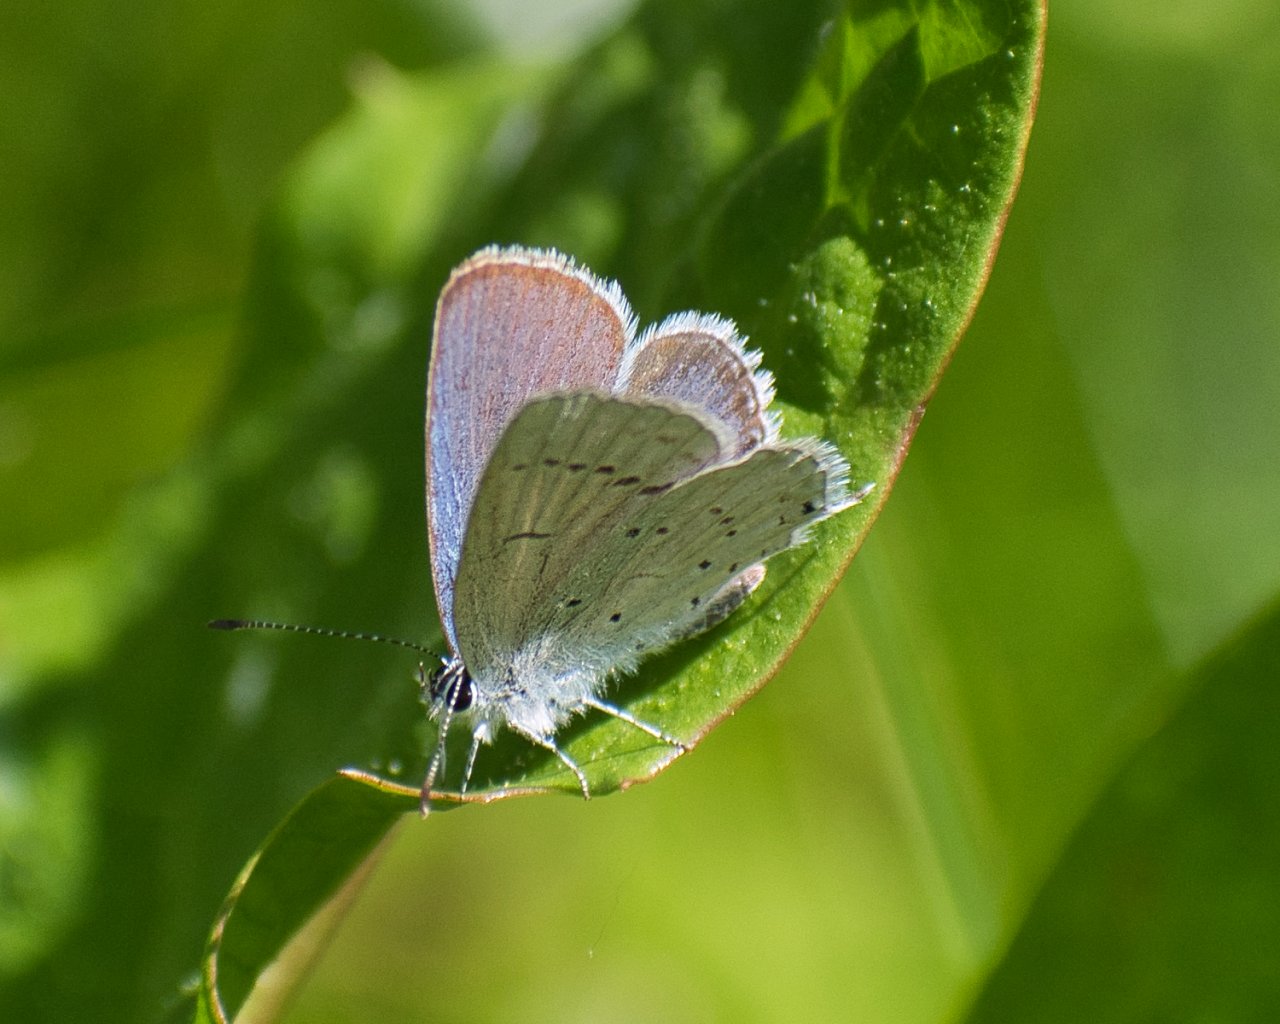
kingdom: Animalia
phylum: Arthropoda
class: Insecta
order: Lepidoptera
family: Lycaenidae
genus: Elkalyce
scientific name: Elkalyce amyntula
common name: Western Tailed-Blue
